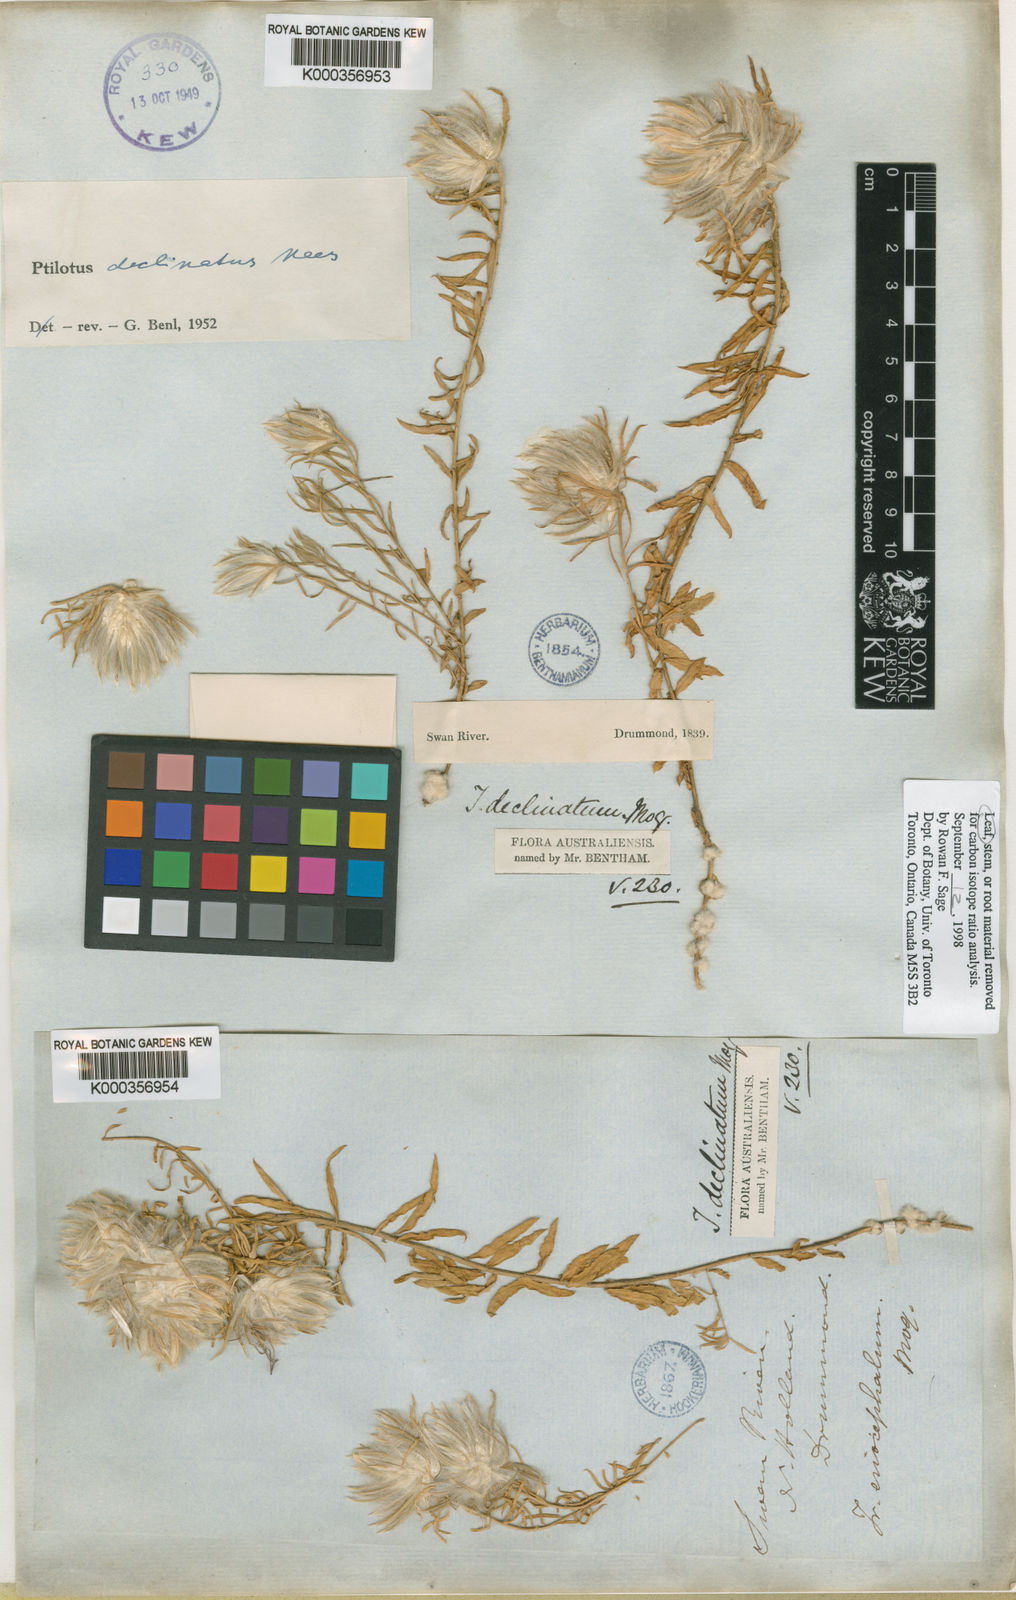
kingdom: Plantae
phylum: Tracheophyta
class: Magnoliopsida
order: Caryophyllales
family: Amaranthaceae
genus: Ptilotus
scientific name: Ptilotus declinatus
